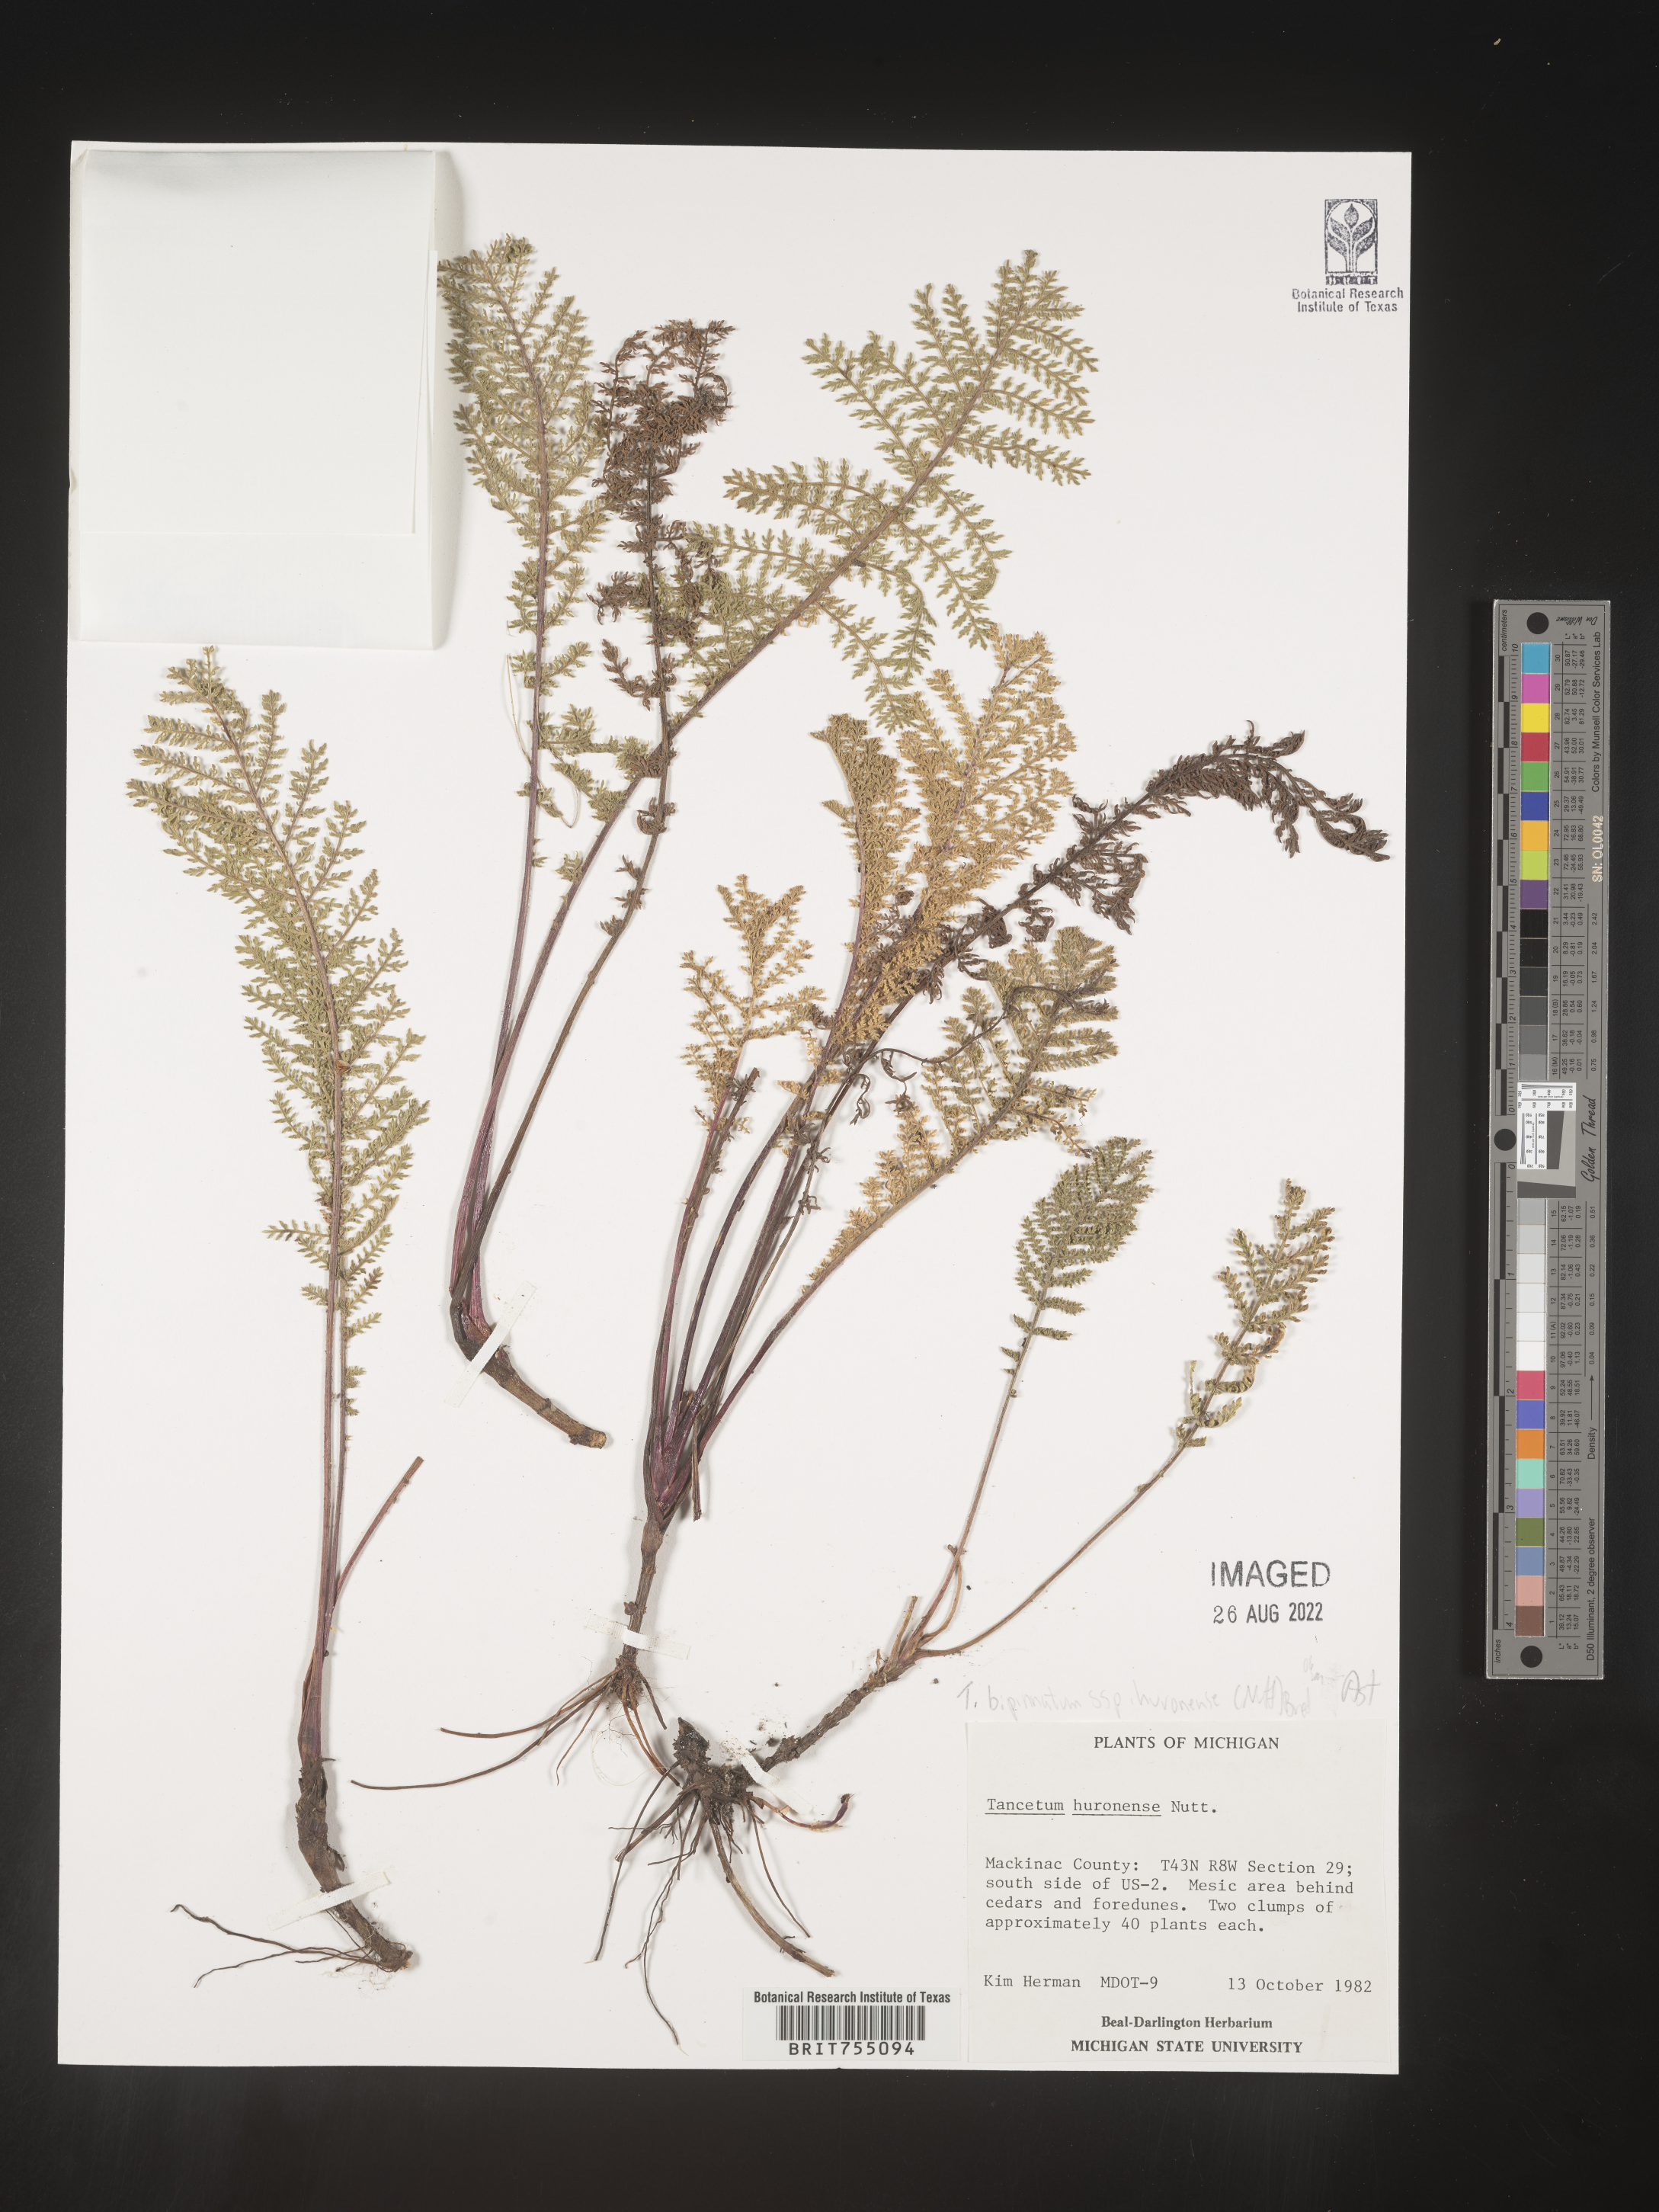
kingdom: Plantae
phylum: Tracheophyta
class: Magnoliopsida
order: Asterales
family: Asteraceae
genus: Tanacetum
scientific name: Tanacetum
